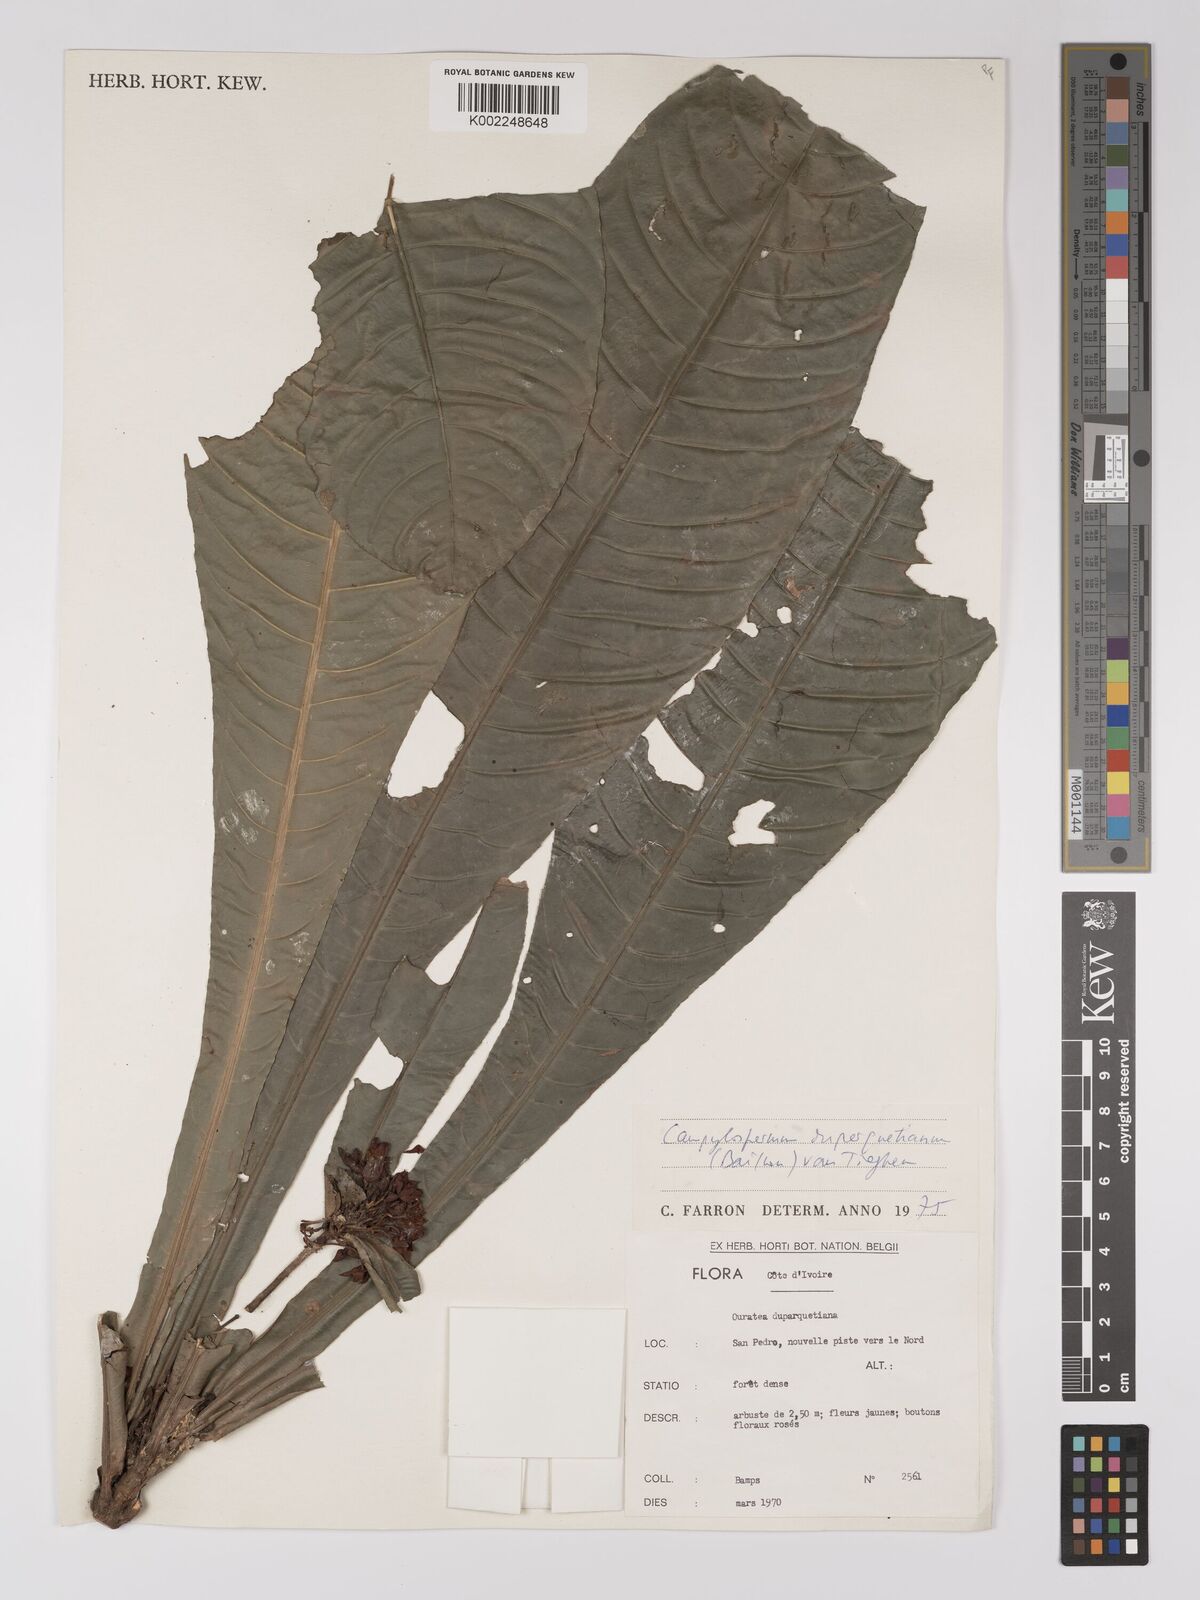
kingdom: Plantae
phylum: Tracheophyta
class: Magnoliopsida
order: Malpighiales
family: Ochnaceae
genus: Campylospermum
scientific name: Campylospermum duparquetianum
